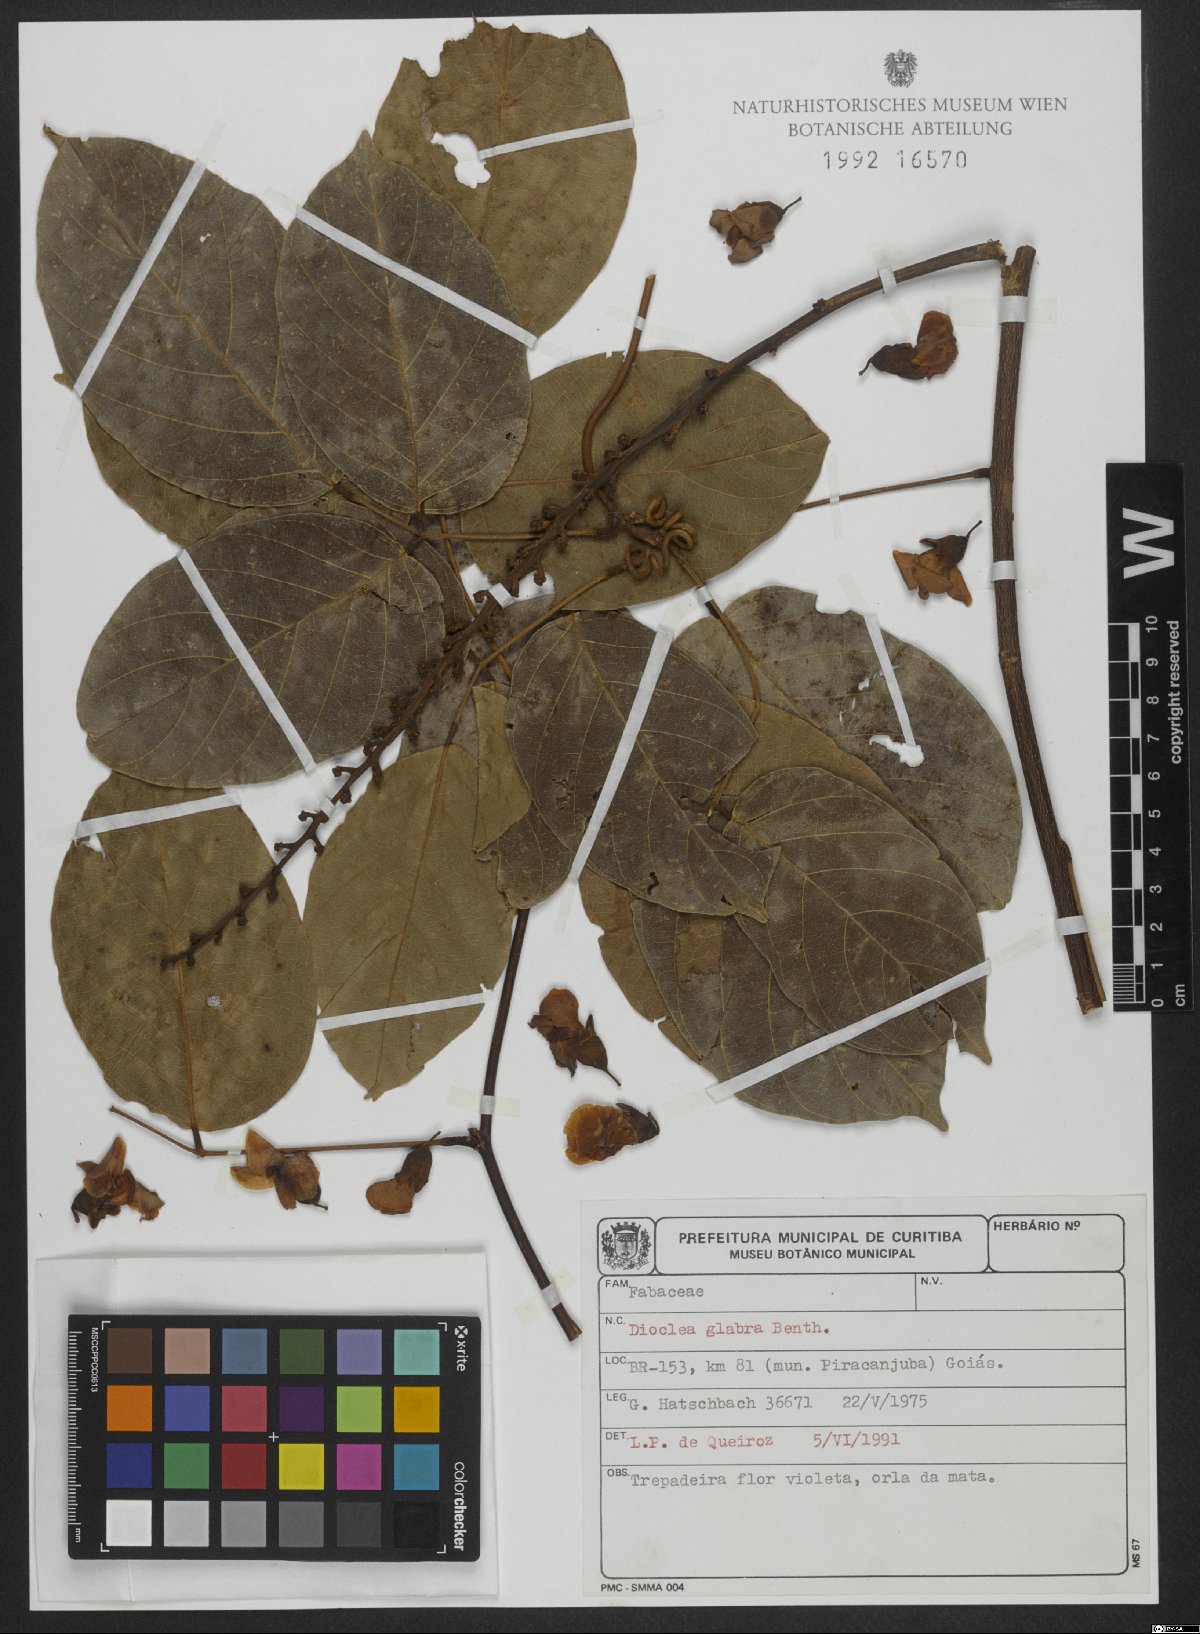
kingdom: Plantae
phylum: Tracheophyta
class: Magnoliopsida
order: Fabales
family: Fabaceae
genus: Macropsychanthus
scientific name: Macropsychanthus glaber
